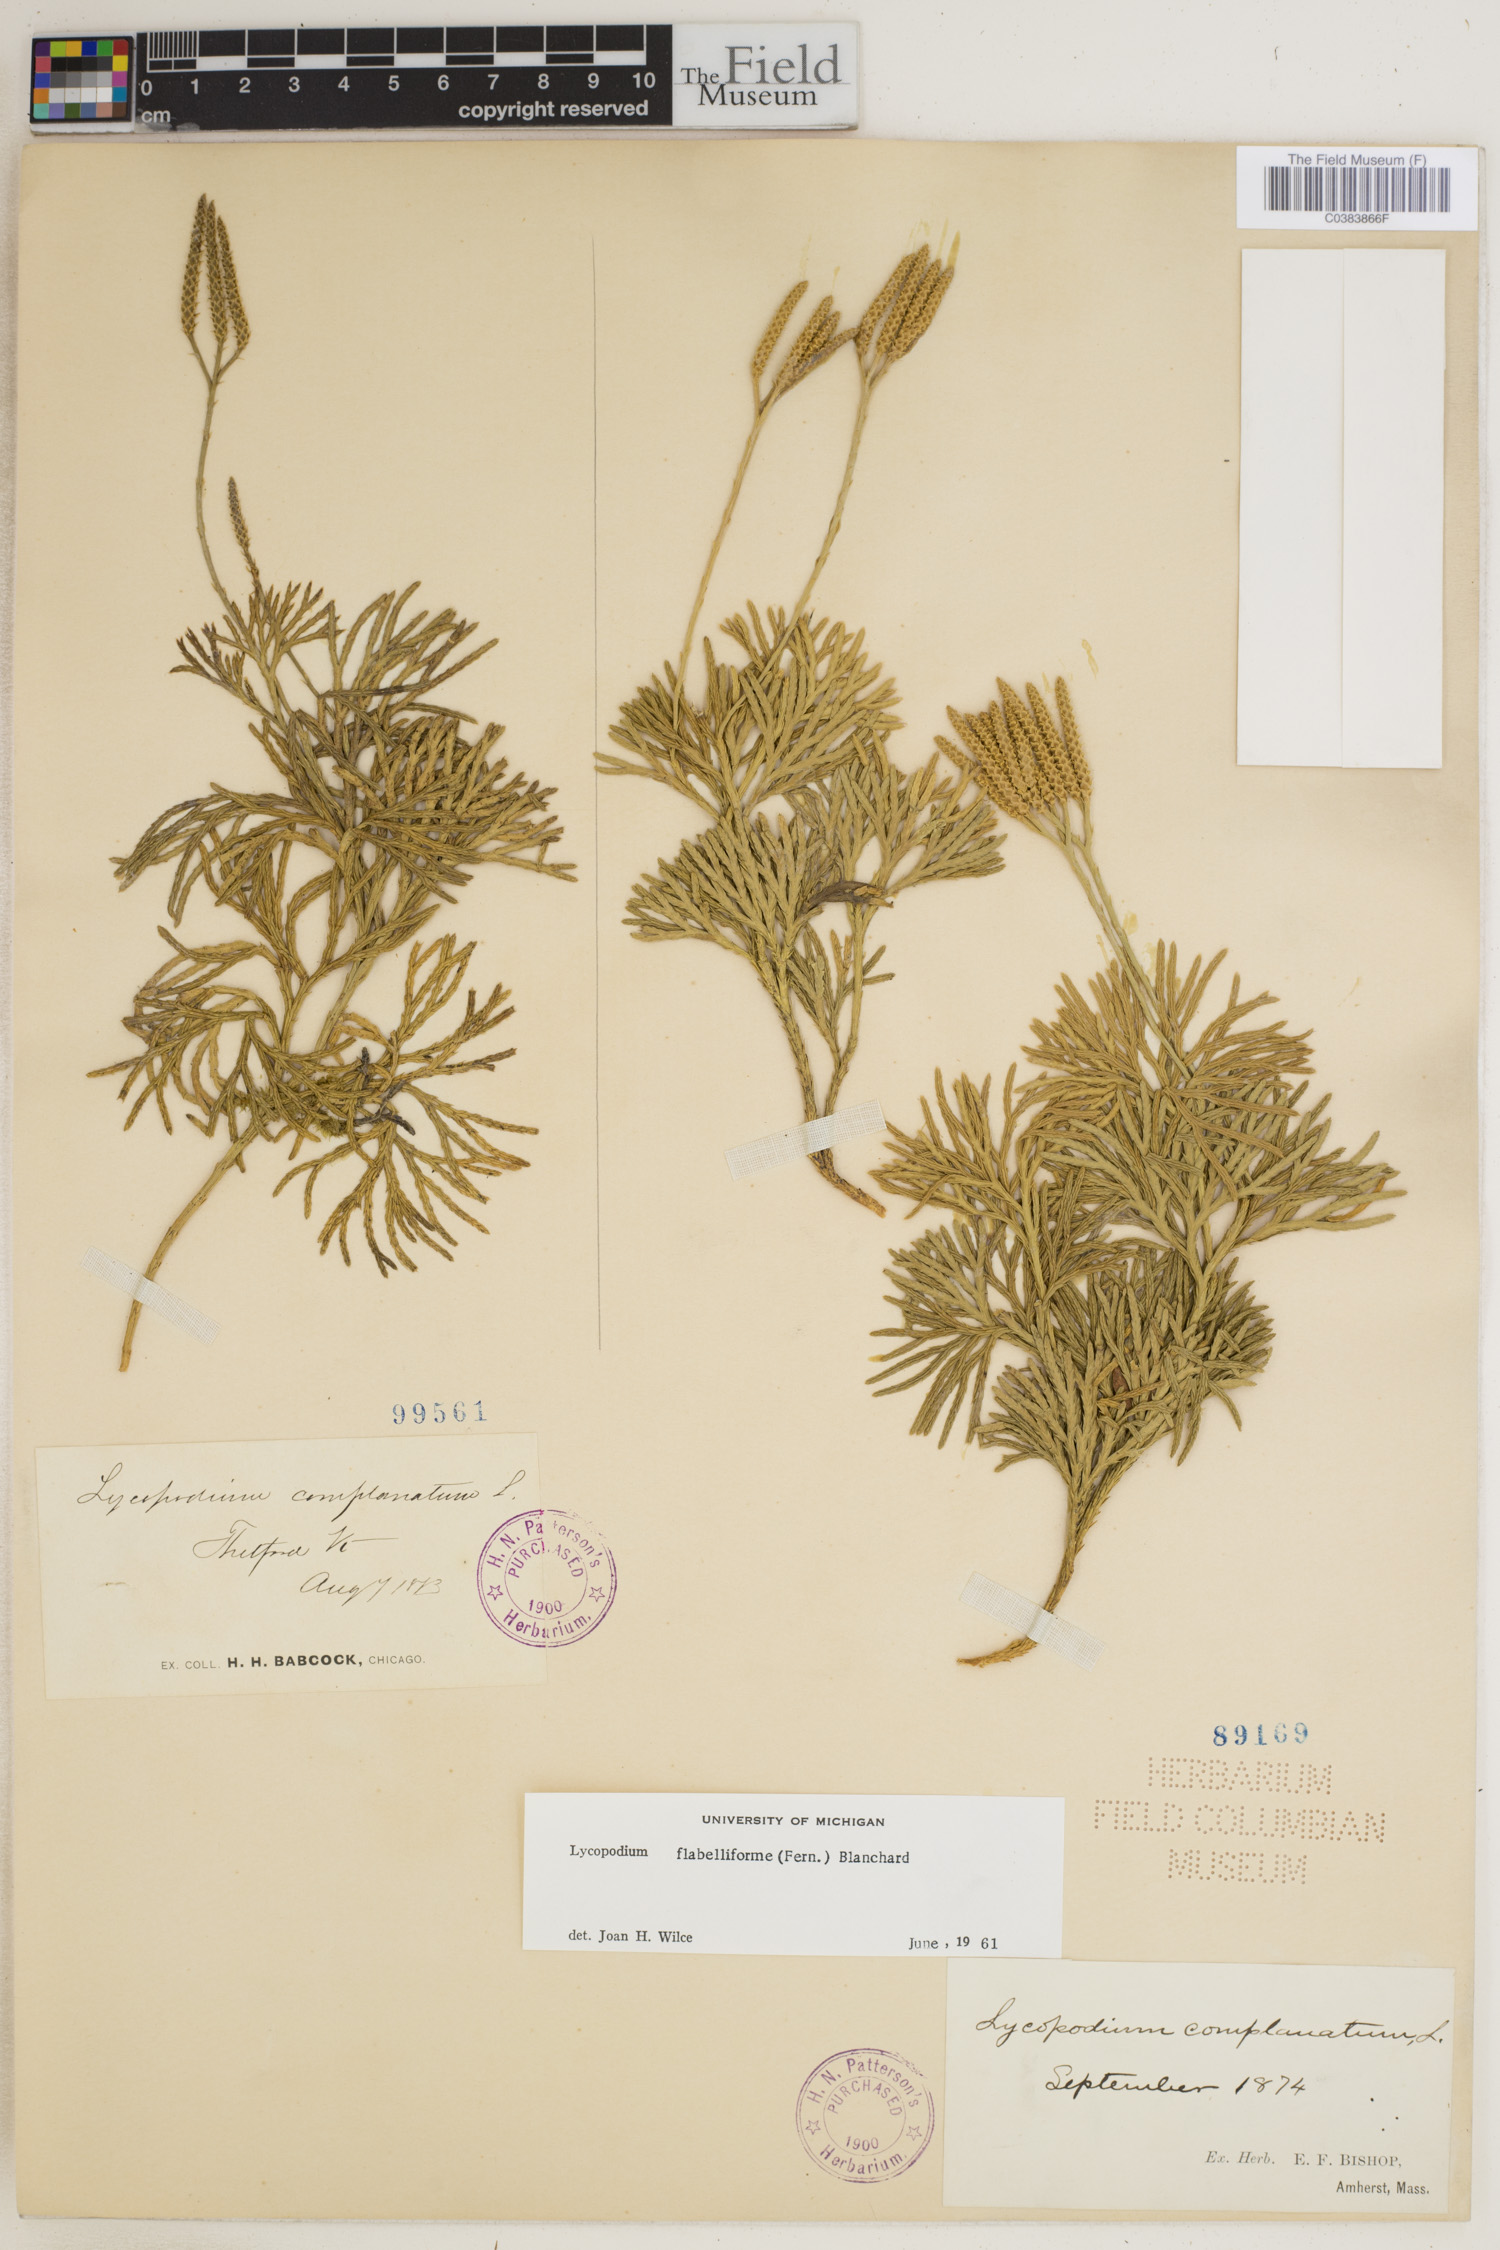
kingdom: Plantae
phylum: Tracheophyta
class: Lycopodiopsida
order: Lycopodiales
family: Lycopodiaceae
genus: Diphasiastrum
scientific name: Diphasiastrum digitatum
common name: Southern running-pine
